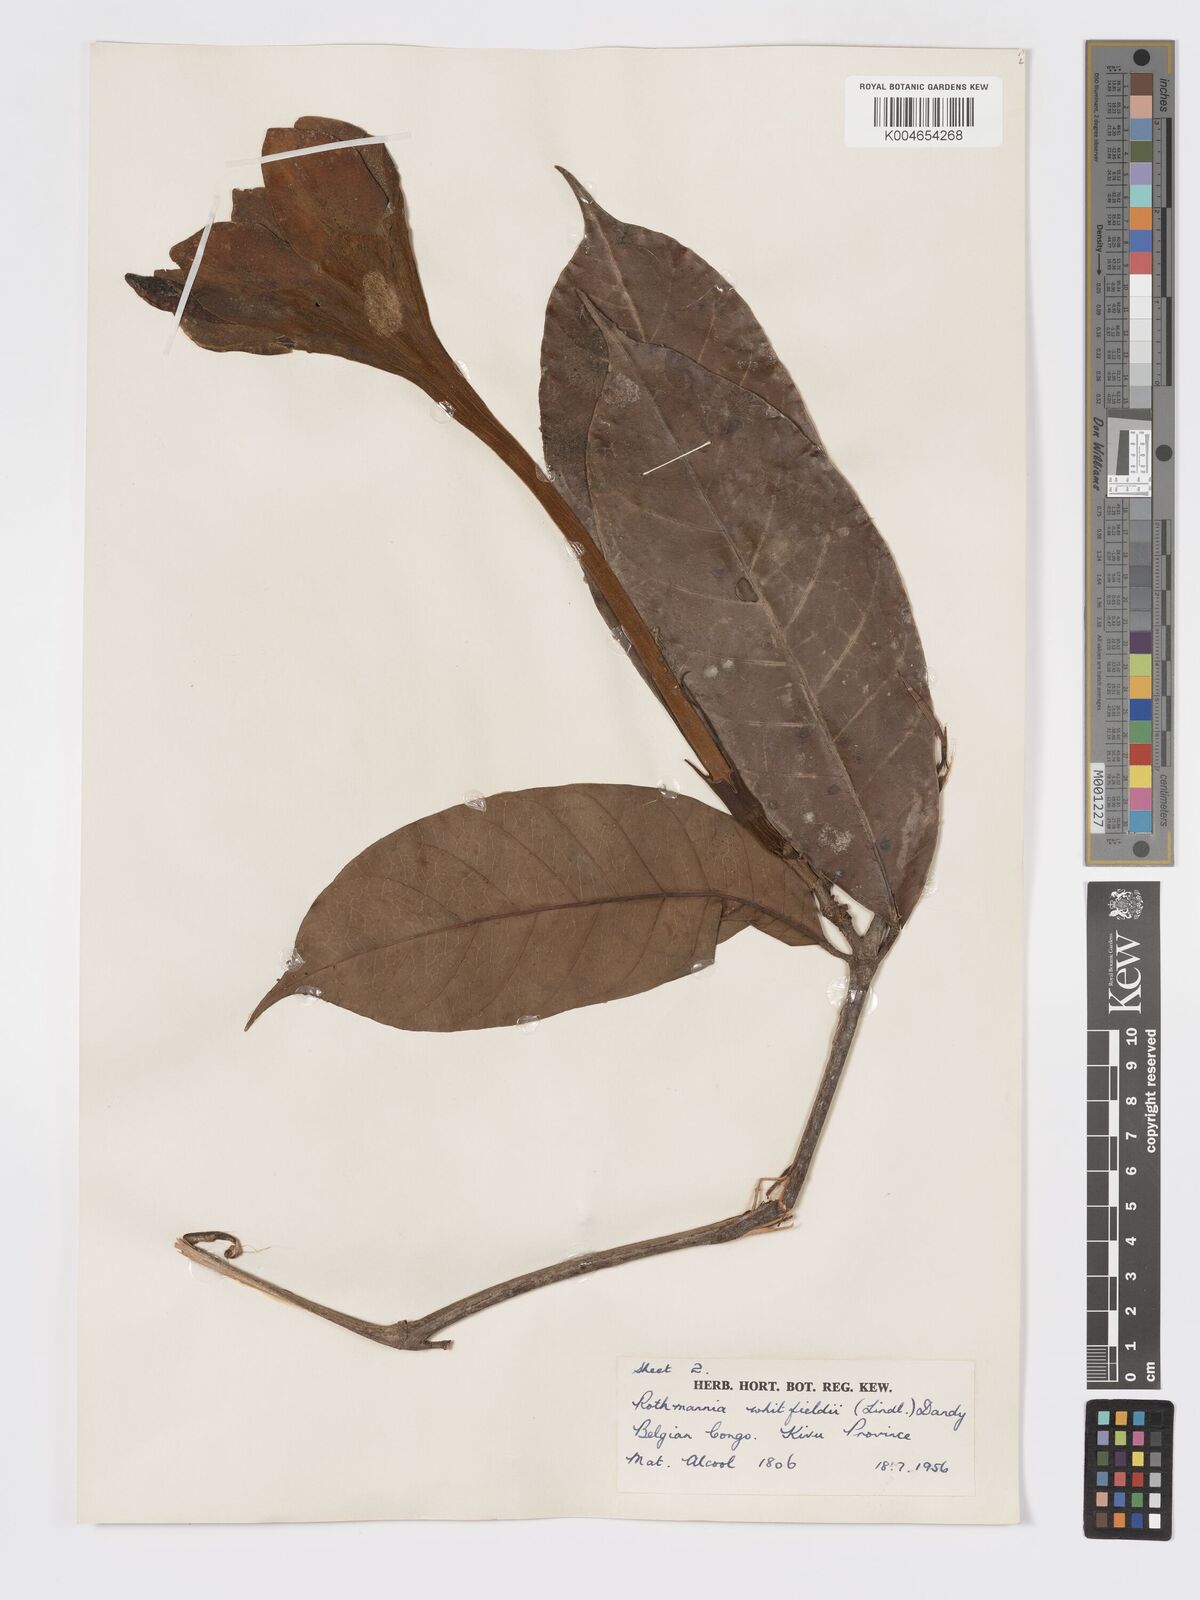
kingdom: Plantae
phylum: Tracheophyta
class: Magnoliopsida
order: Gentianales
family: Rubiaceae
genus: Rothmannia
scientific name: Rothmannia whitfieldii
